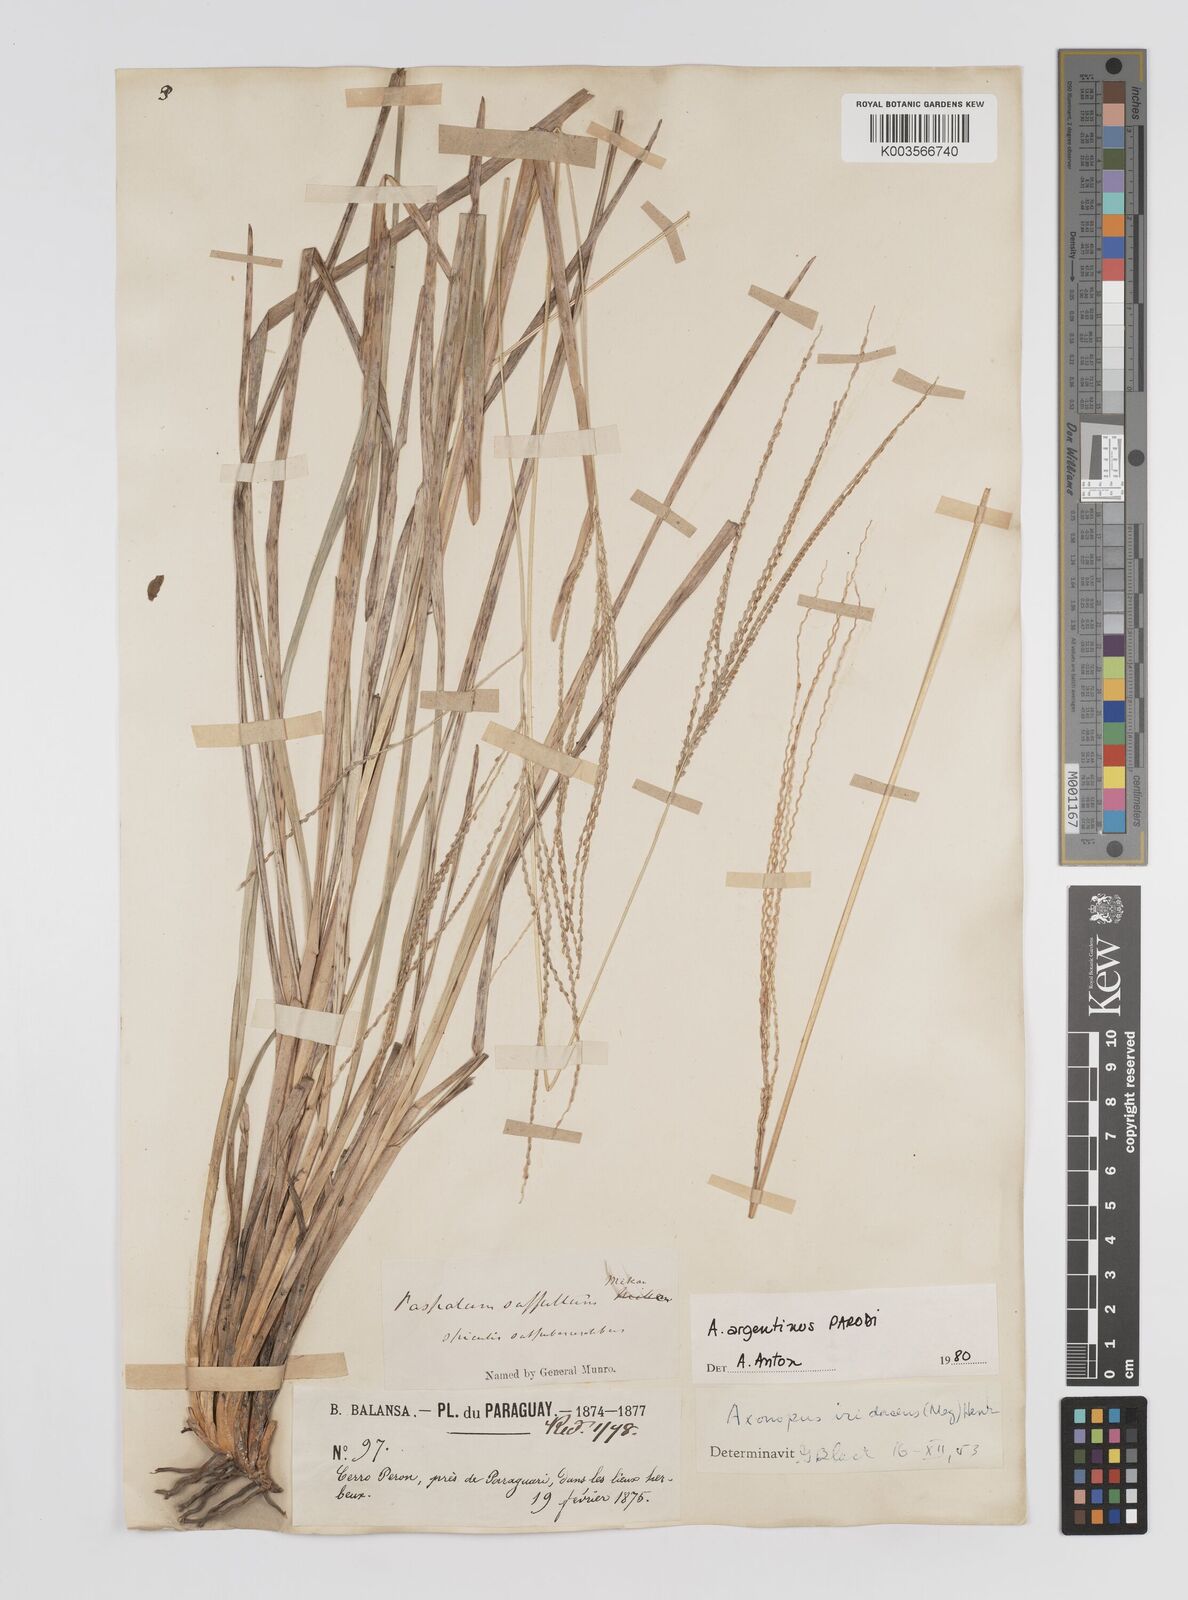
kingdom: Plantae
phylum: Tracheophyta
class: Liliopsida
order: Poales
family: Poaceae
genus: Axonopus
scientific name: Axonopus argentinus
